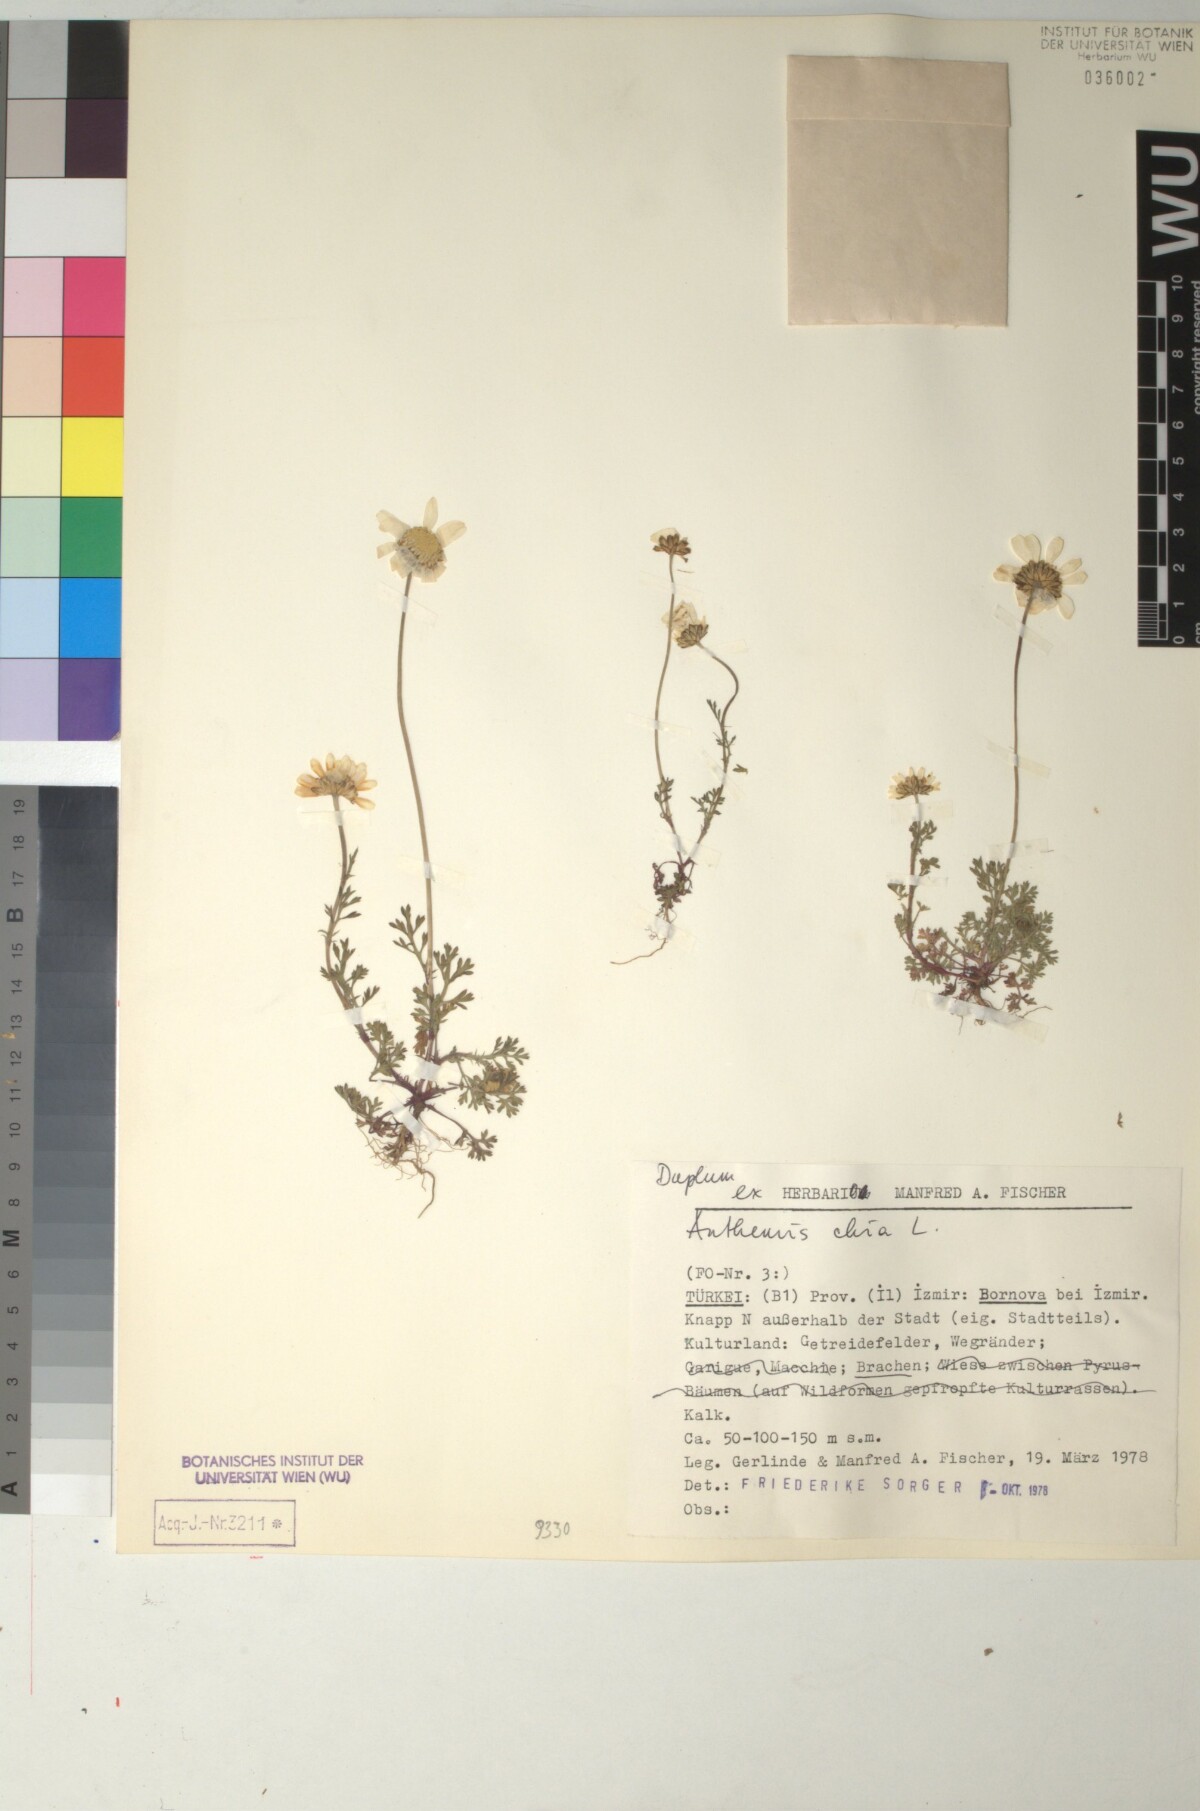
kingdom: Plantae
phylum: Tracheophyta
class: Magnoliopsida
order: Asterales
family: Asteraceae
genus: Anthemis
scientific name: Anthemis chia
